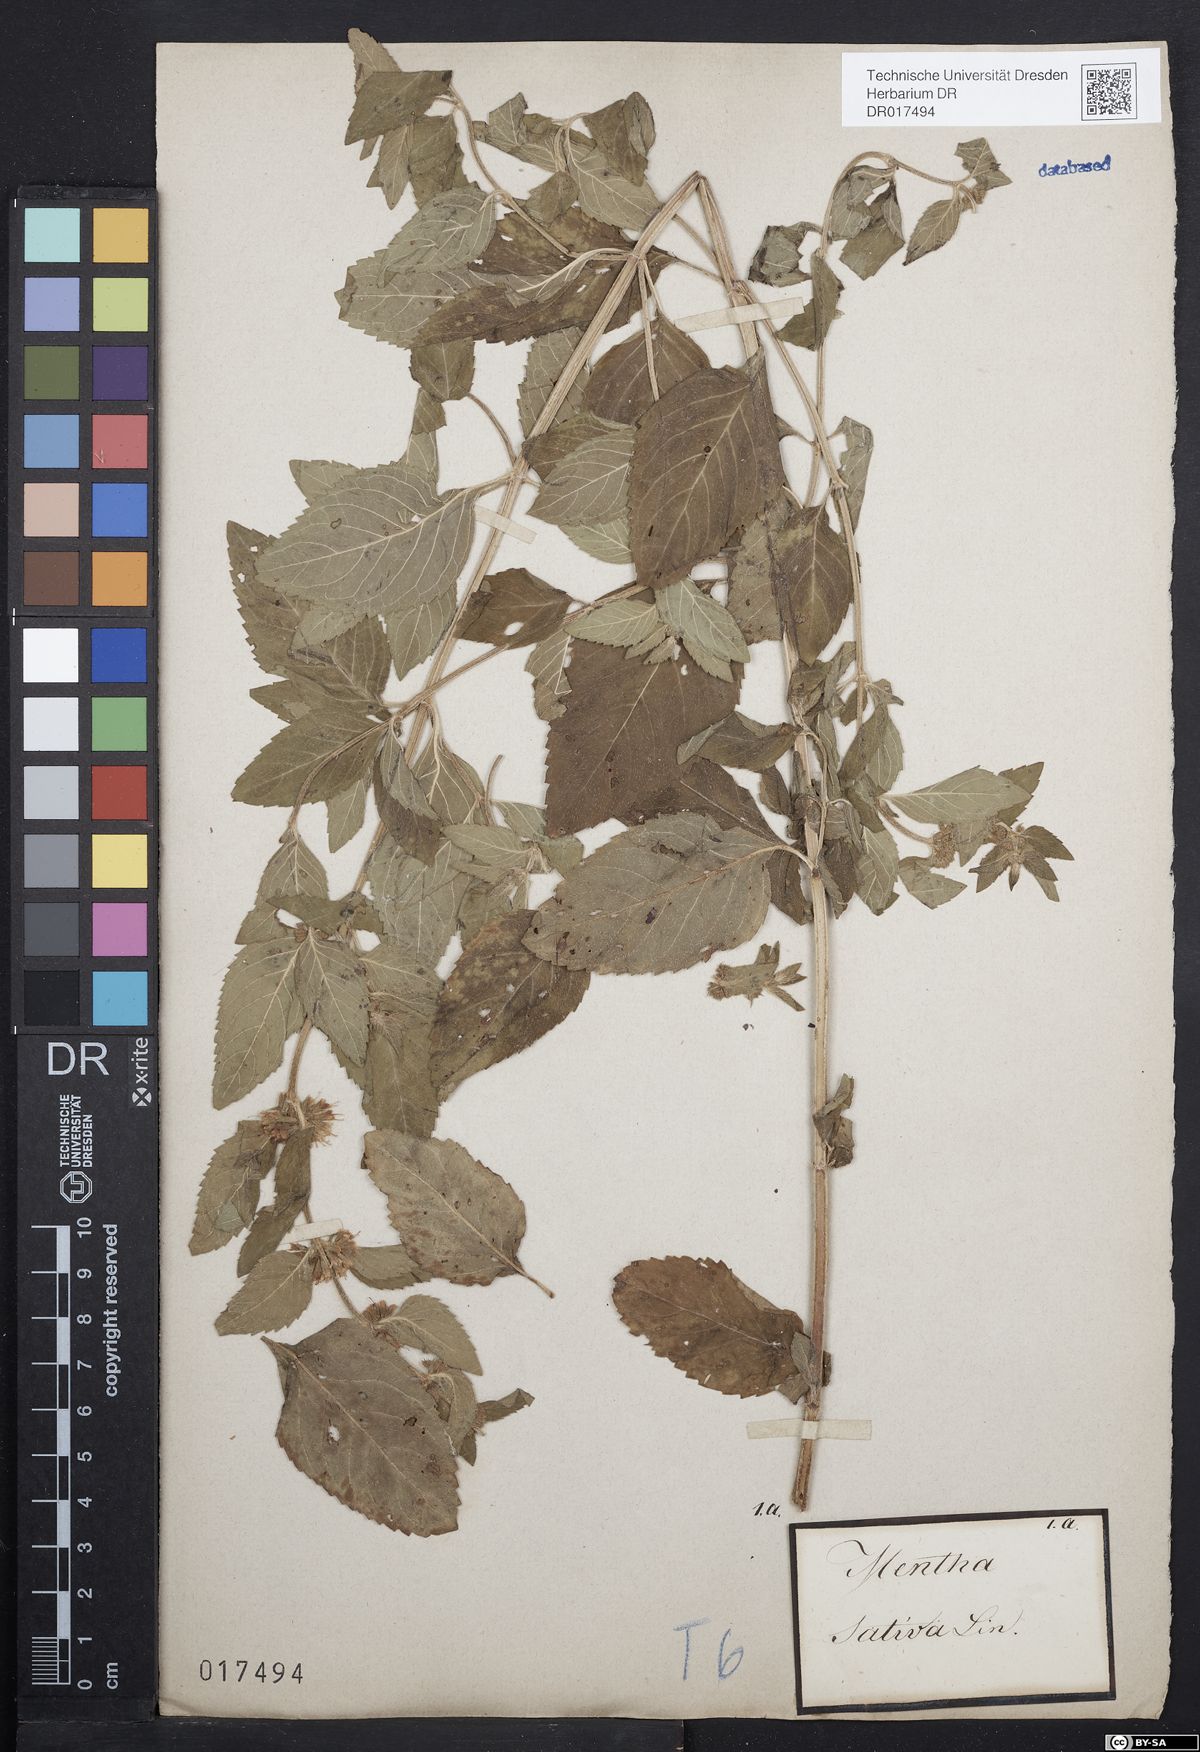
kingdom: Plantae
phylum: Tracheophyta
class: Magnoliopsida
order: Lamiales
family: Lamiaceae
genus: Mentha
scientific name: Mentha verticillata
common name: Mint
